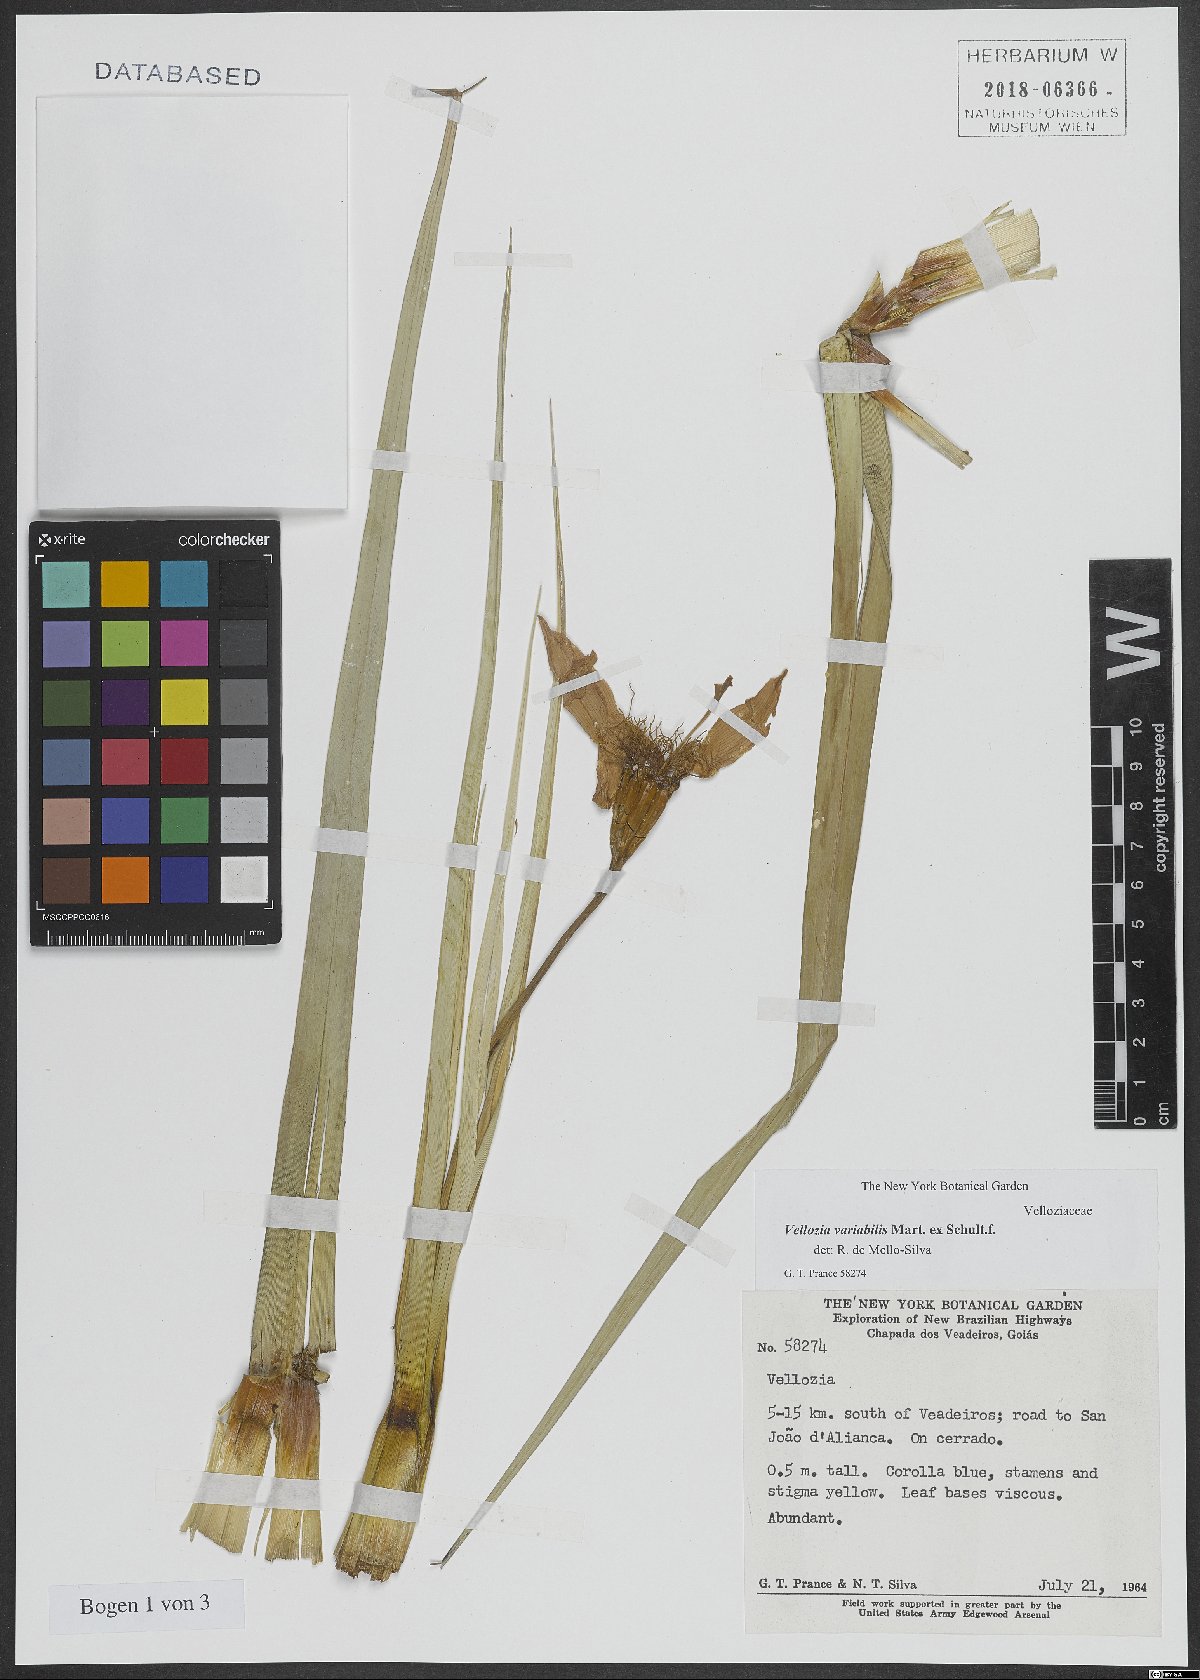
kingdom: Plantae
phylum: Tracheophyta
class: Liliopsida
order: Pandanales
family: Velloziaceae
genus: Vellozia
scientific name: Vellozia variabilis
